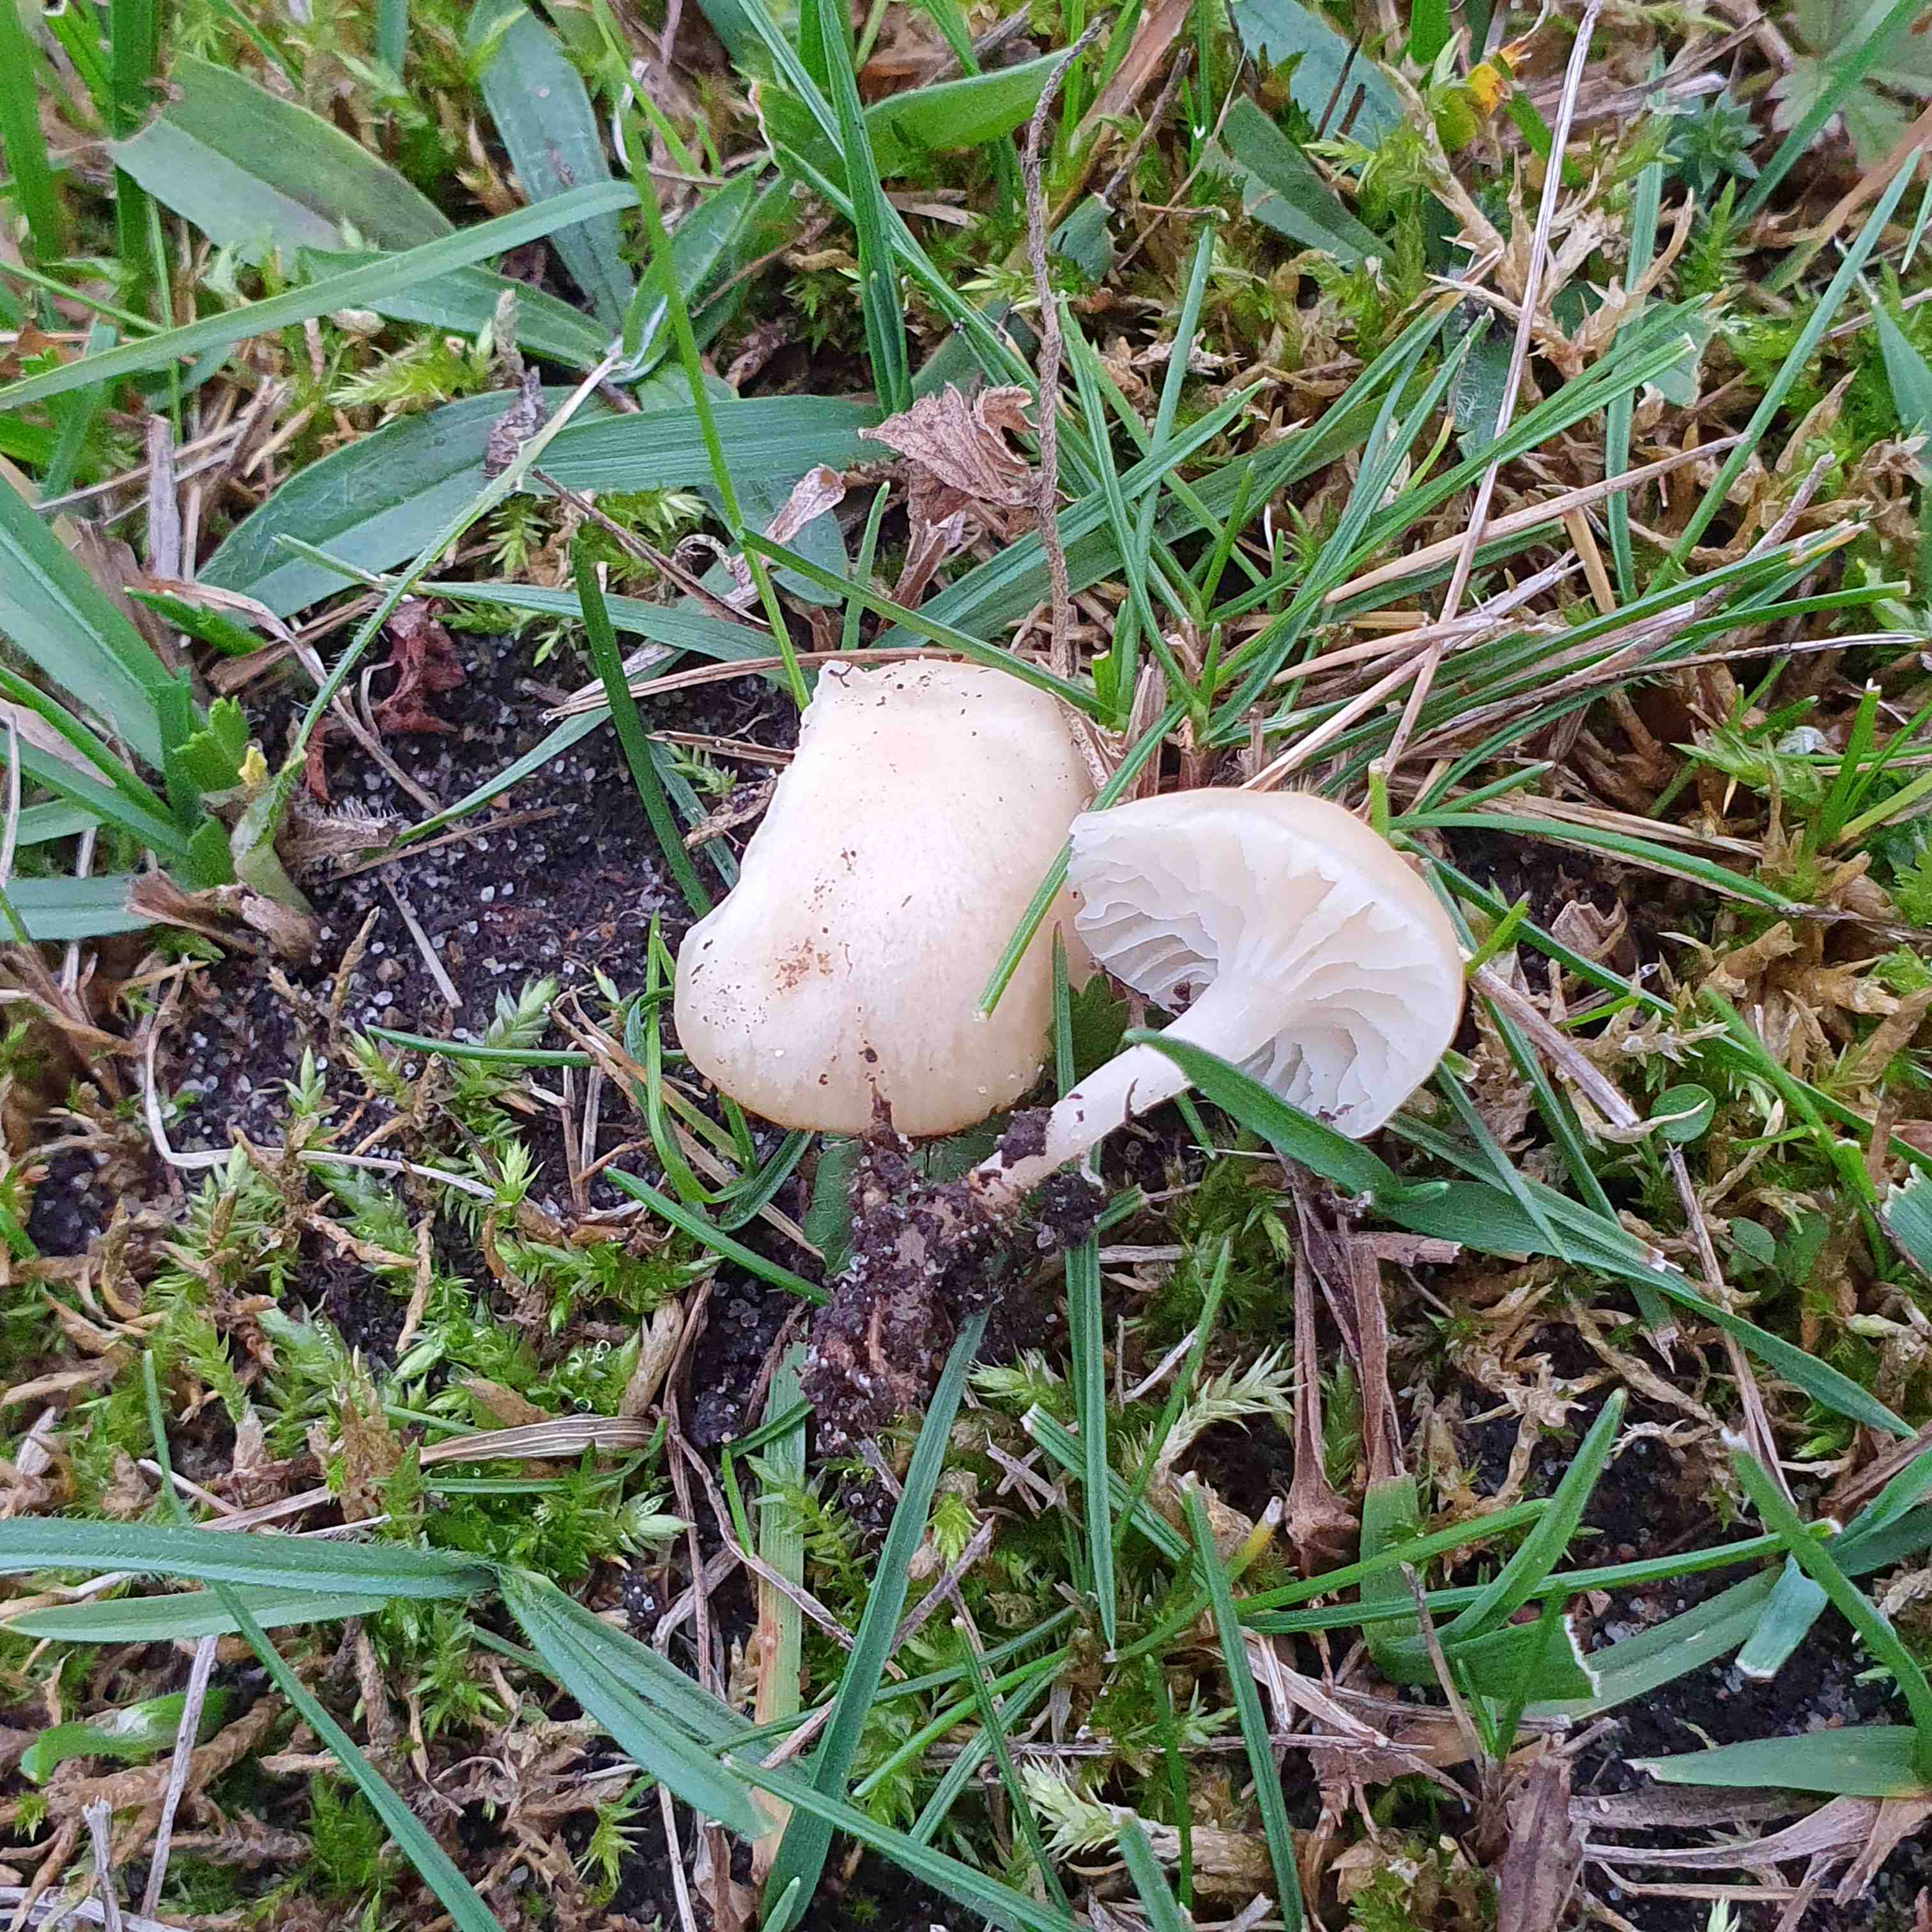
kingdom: Fungi
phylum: Basidiomycota
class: Agaricomycetes
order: Agaricales
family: Hygrophoraceae
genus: Cuphophyllus
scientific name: Cuphophyllus russocoriaceus
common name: ruslæder-vokshat
